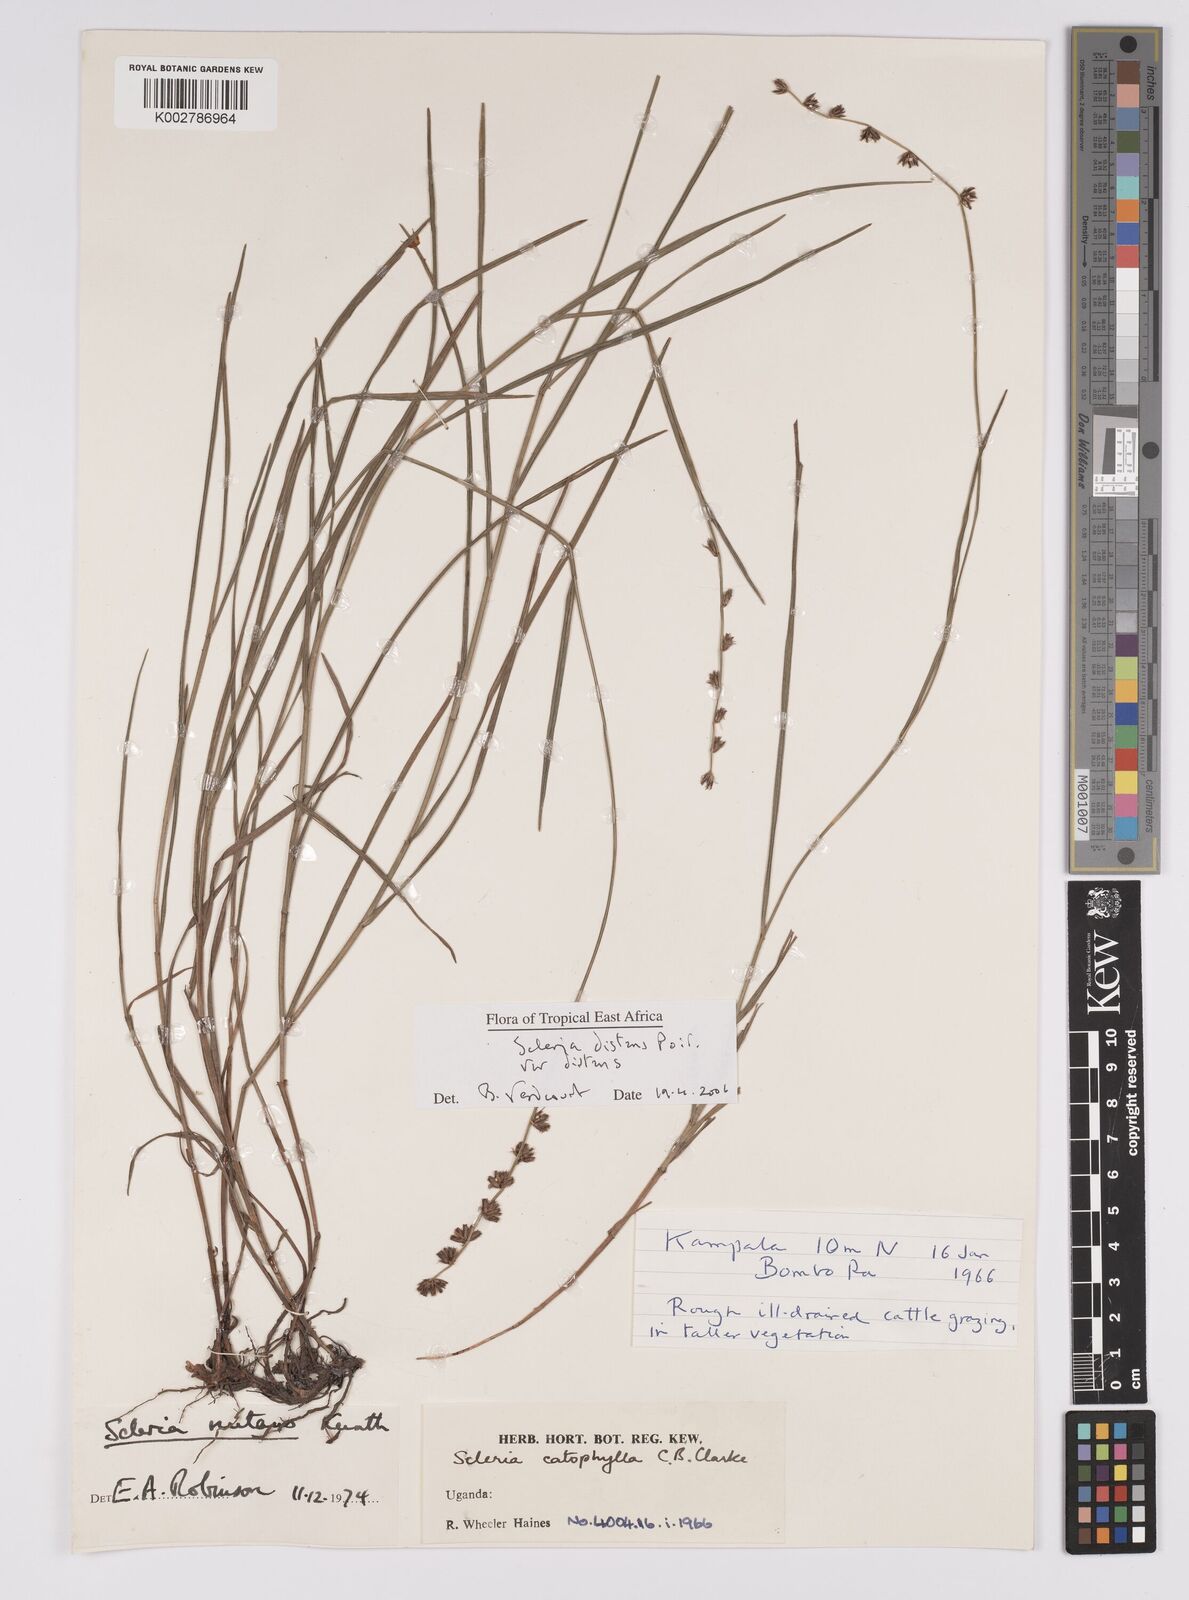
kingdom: Plantae
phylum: Tracheophyta
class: Liliopsida
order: Poales
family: Cyperaceae
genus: Scleria
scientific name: Scleria
